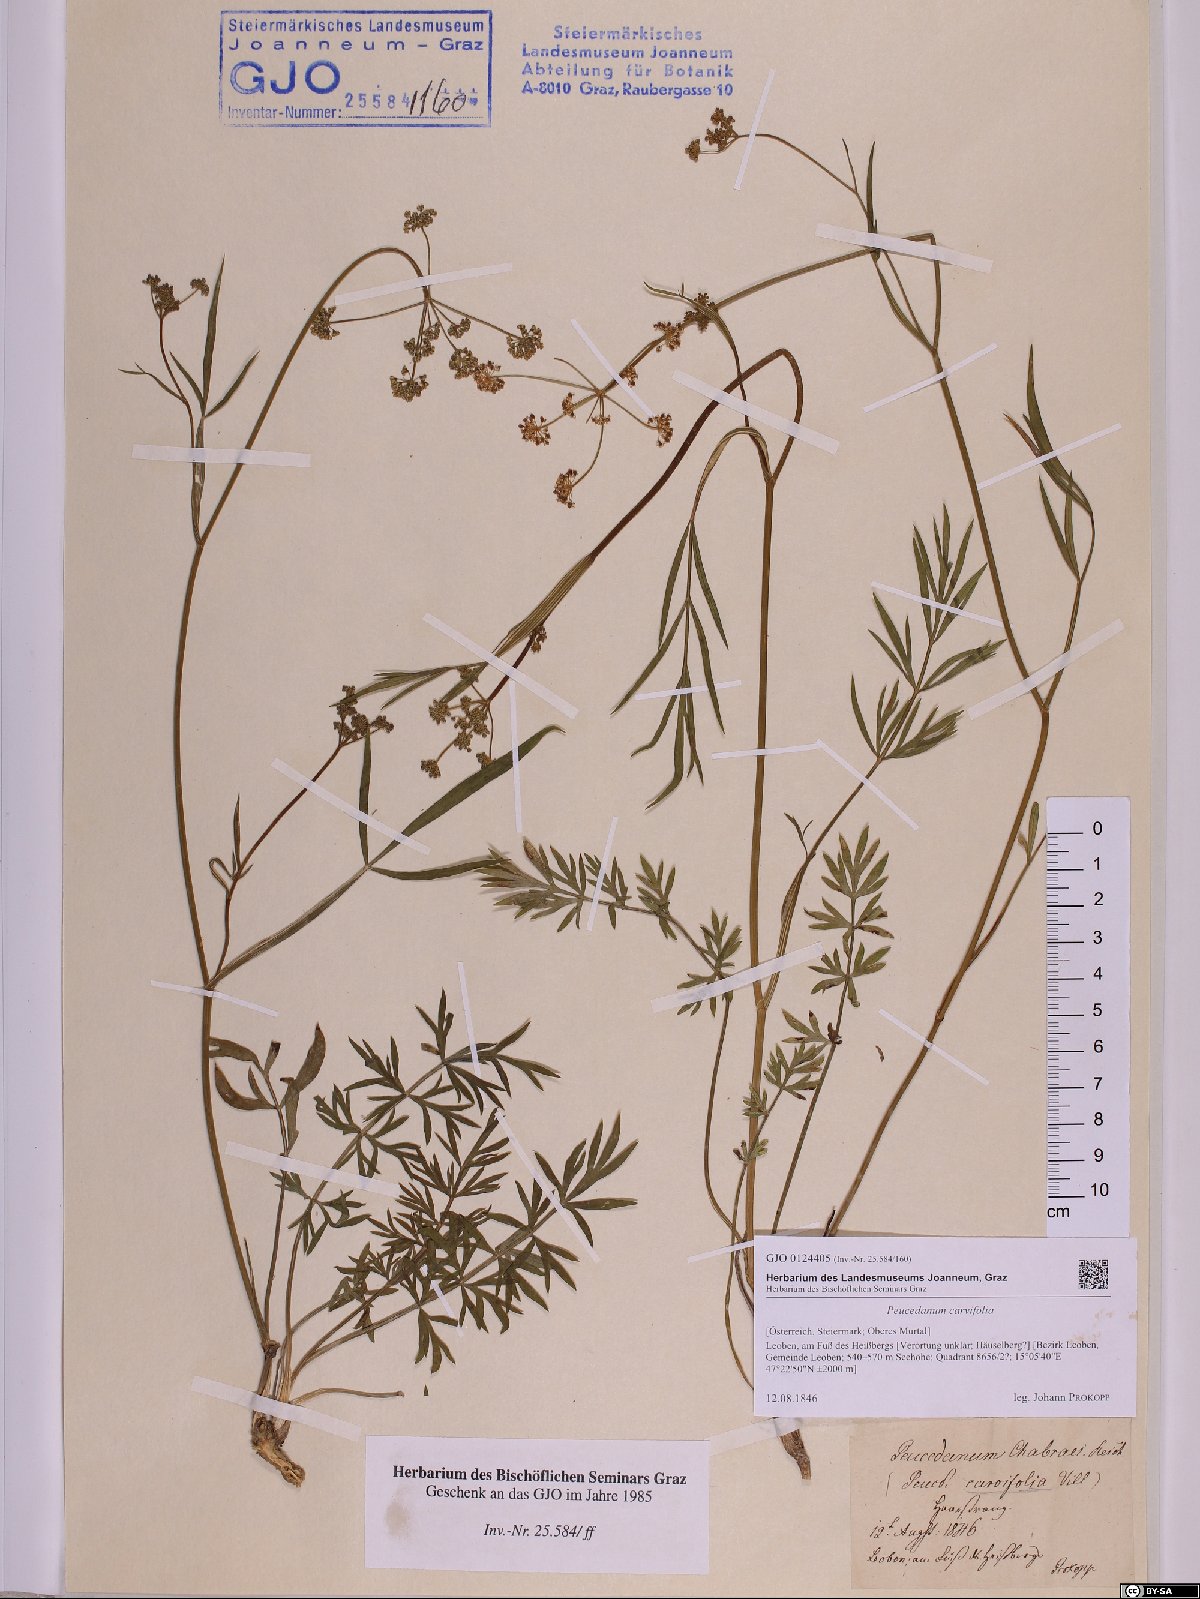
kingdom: Plantae
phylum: Tracheophyta
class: Magnoliopsida
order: Apiales
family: Apiaceae
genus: Dichoropetalum
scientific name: Dichoropetalum carvifolia
